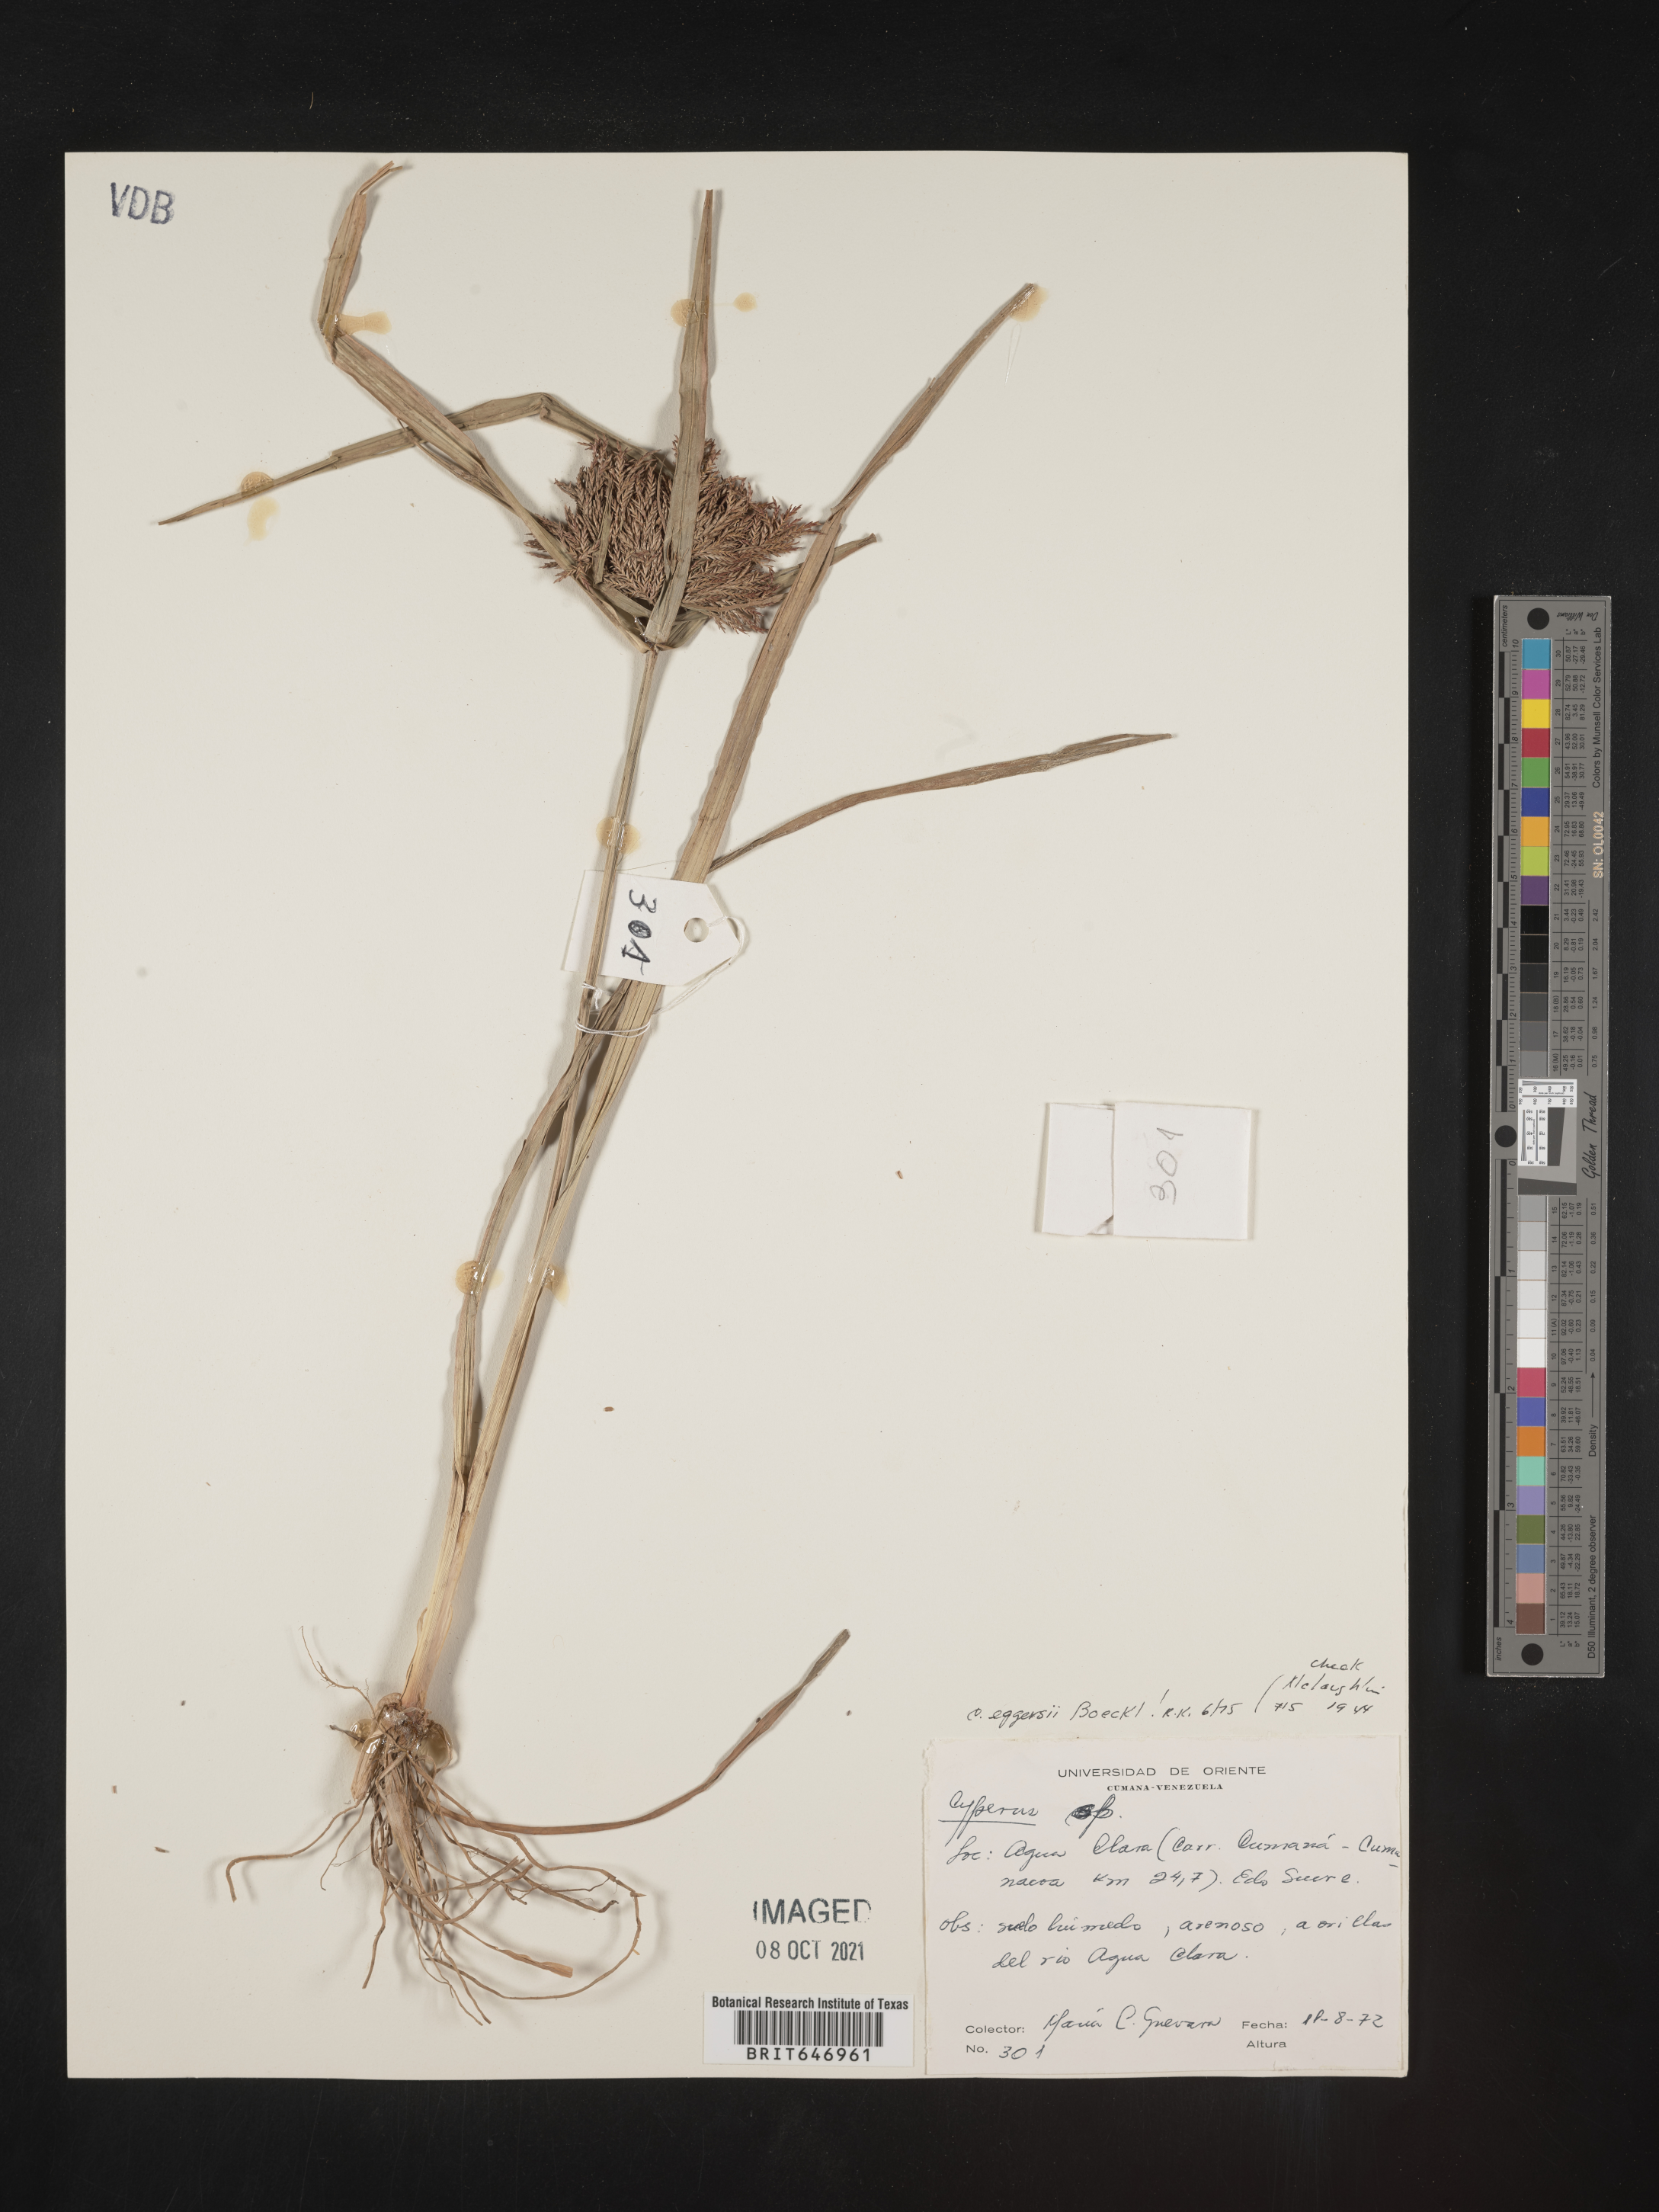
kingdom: Plantae
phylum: Tracheophyta
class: Liliopsida
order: Poales
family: Cyperaceae
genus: Cyperus
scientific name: Cyperus odoratus
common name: Fragrant flatsedge
